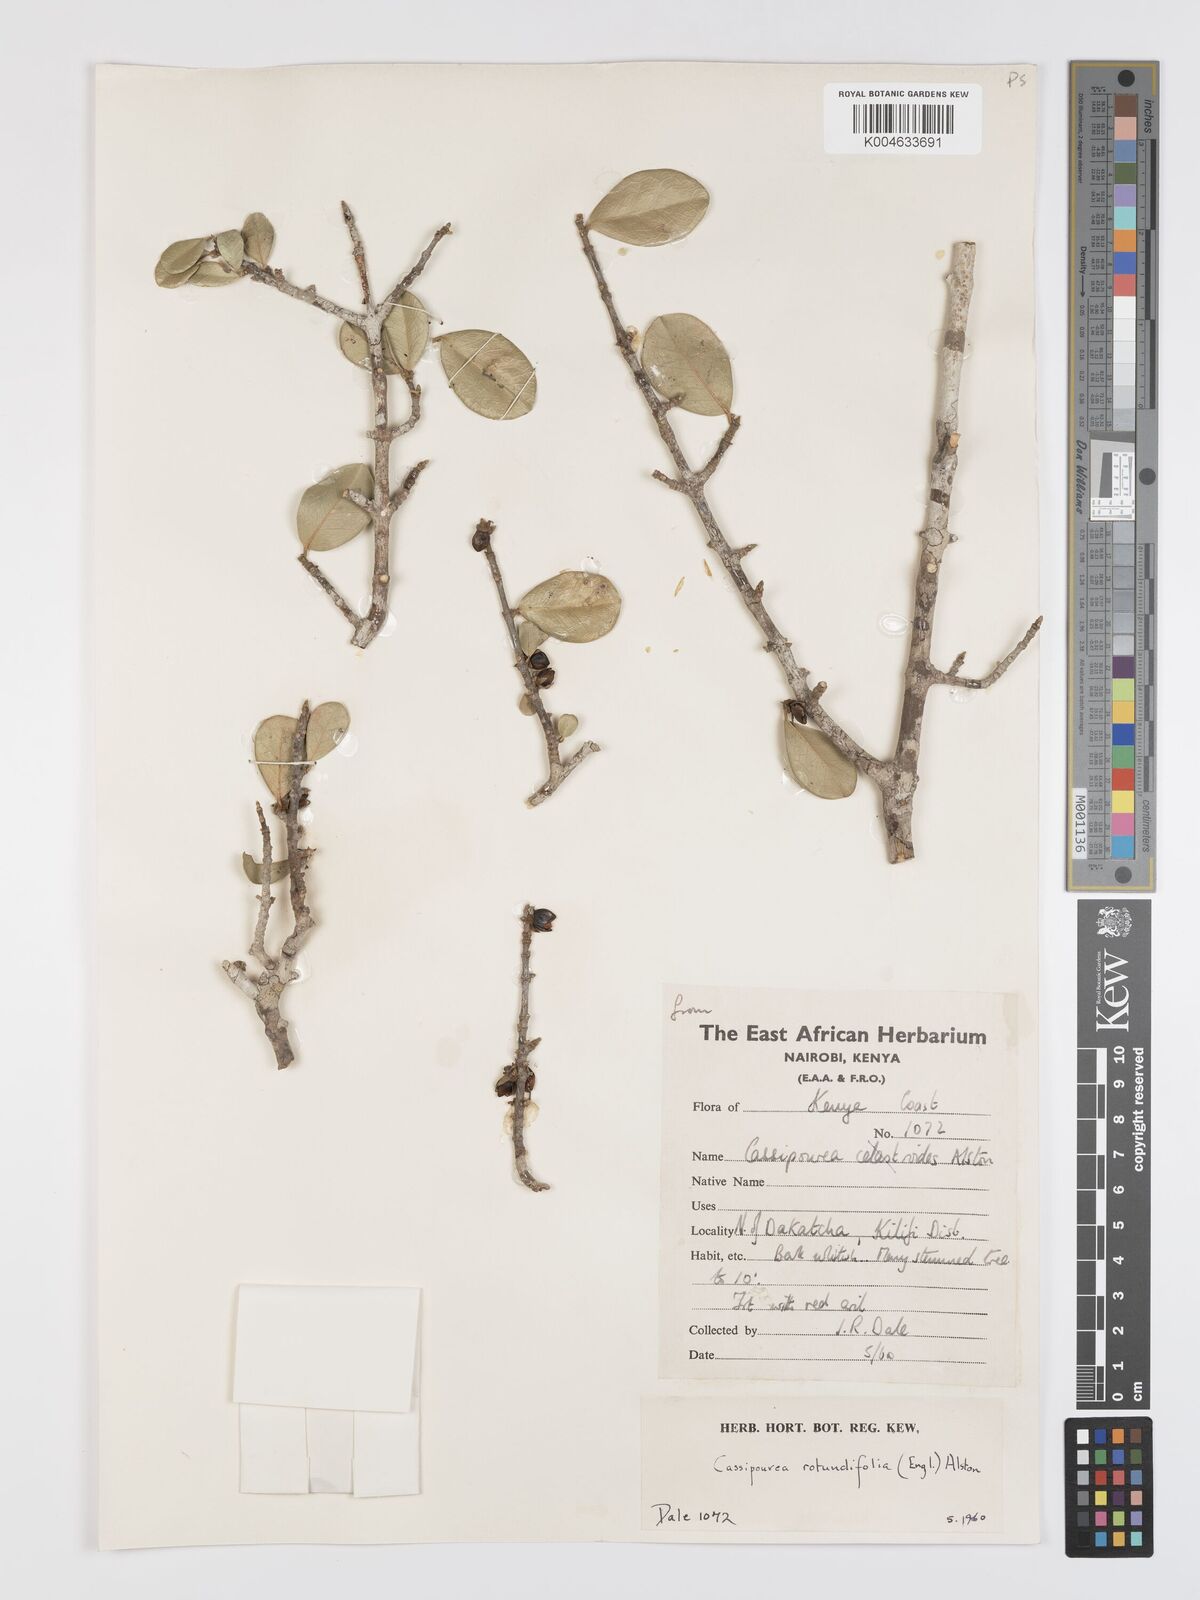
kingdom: Plantae
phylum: Tracheophyta
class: Magnoliopsida
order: Malpighiales
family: Rhizophoraceae
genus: Cassipourea
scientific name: Cassipourea rotundifolia
